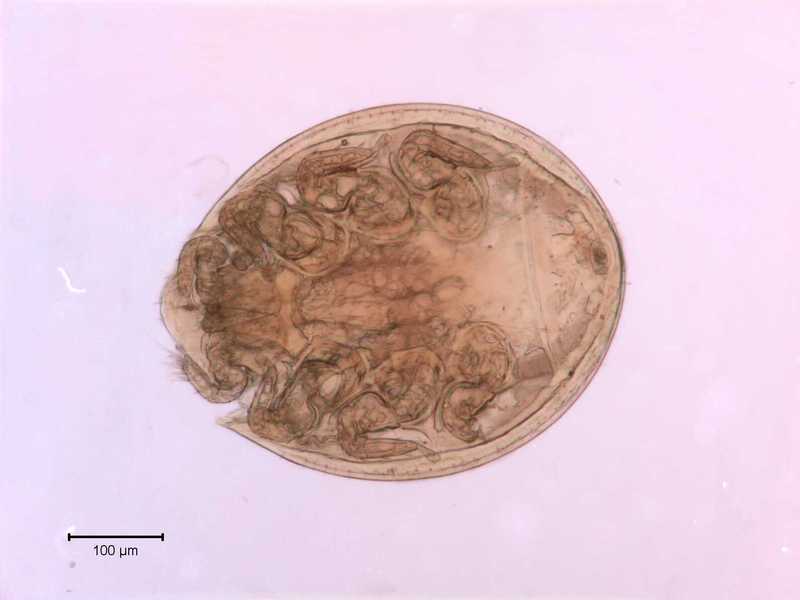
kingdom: Animalia
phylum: Arthropoda
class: Arachnida
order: Mesostigmata
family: Uropodidae
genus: Uropoda
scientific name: Uropoda
